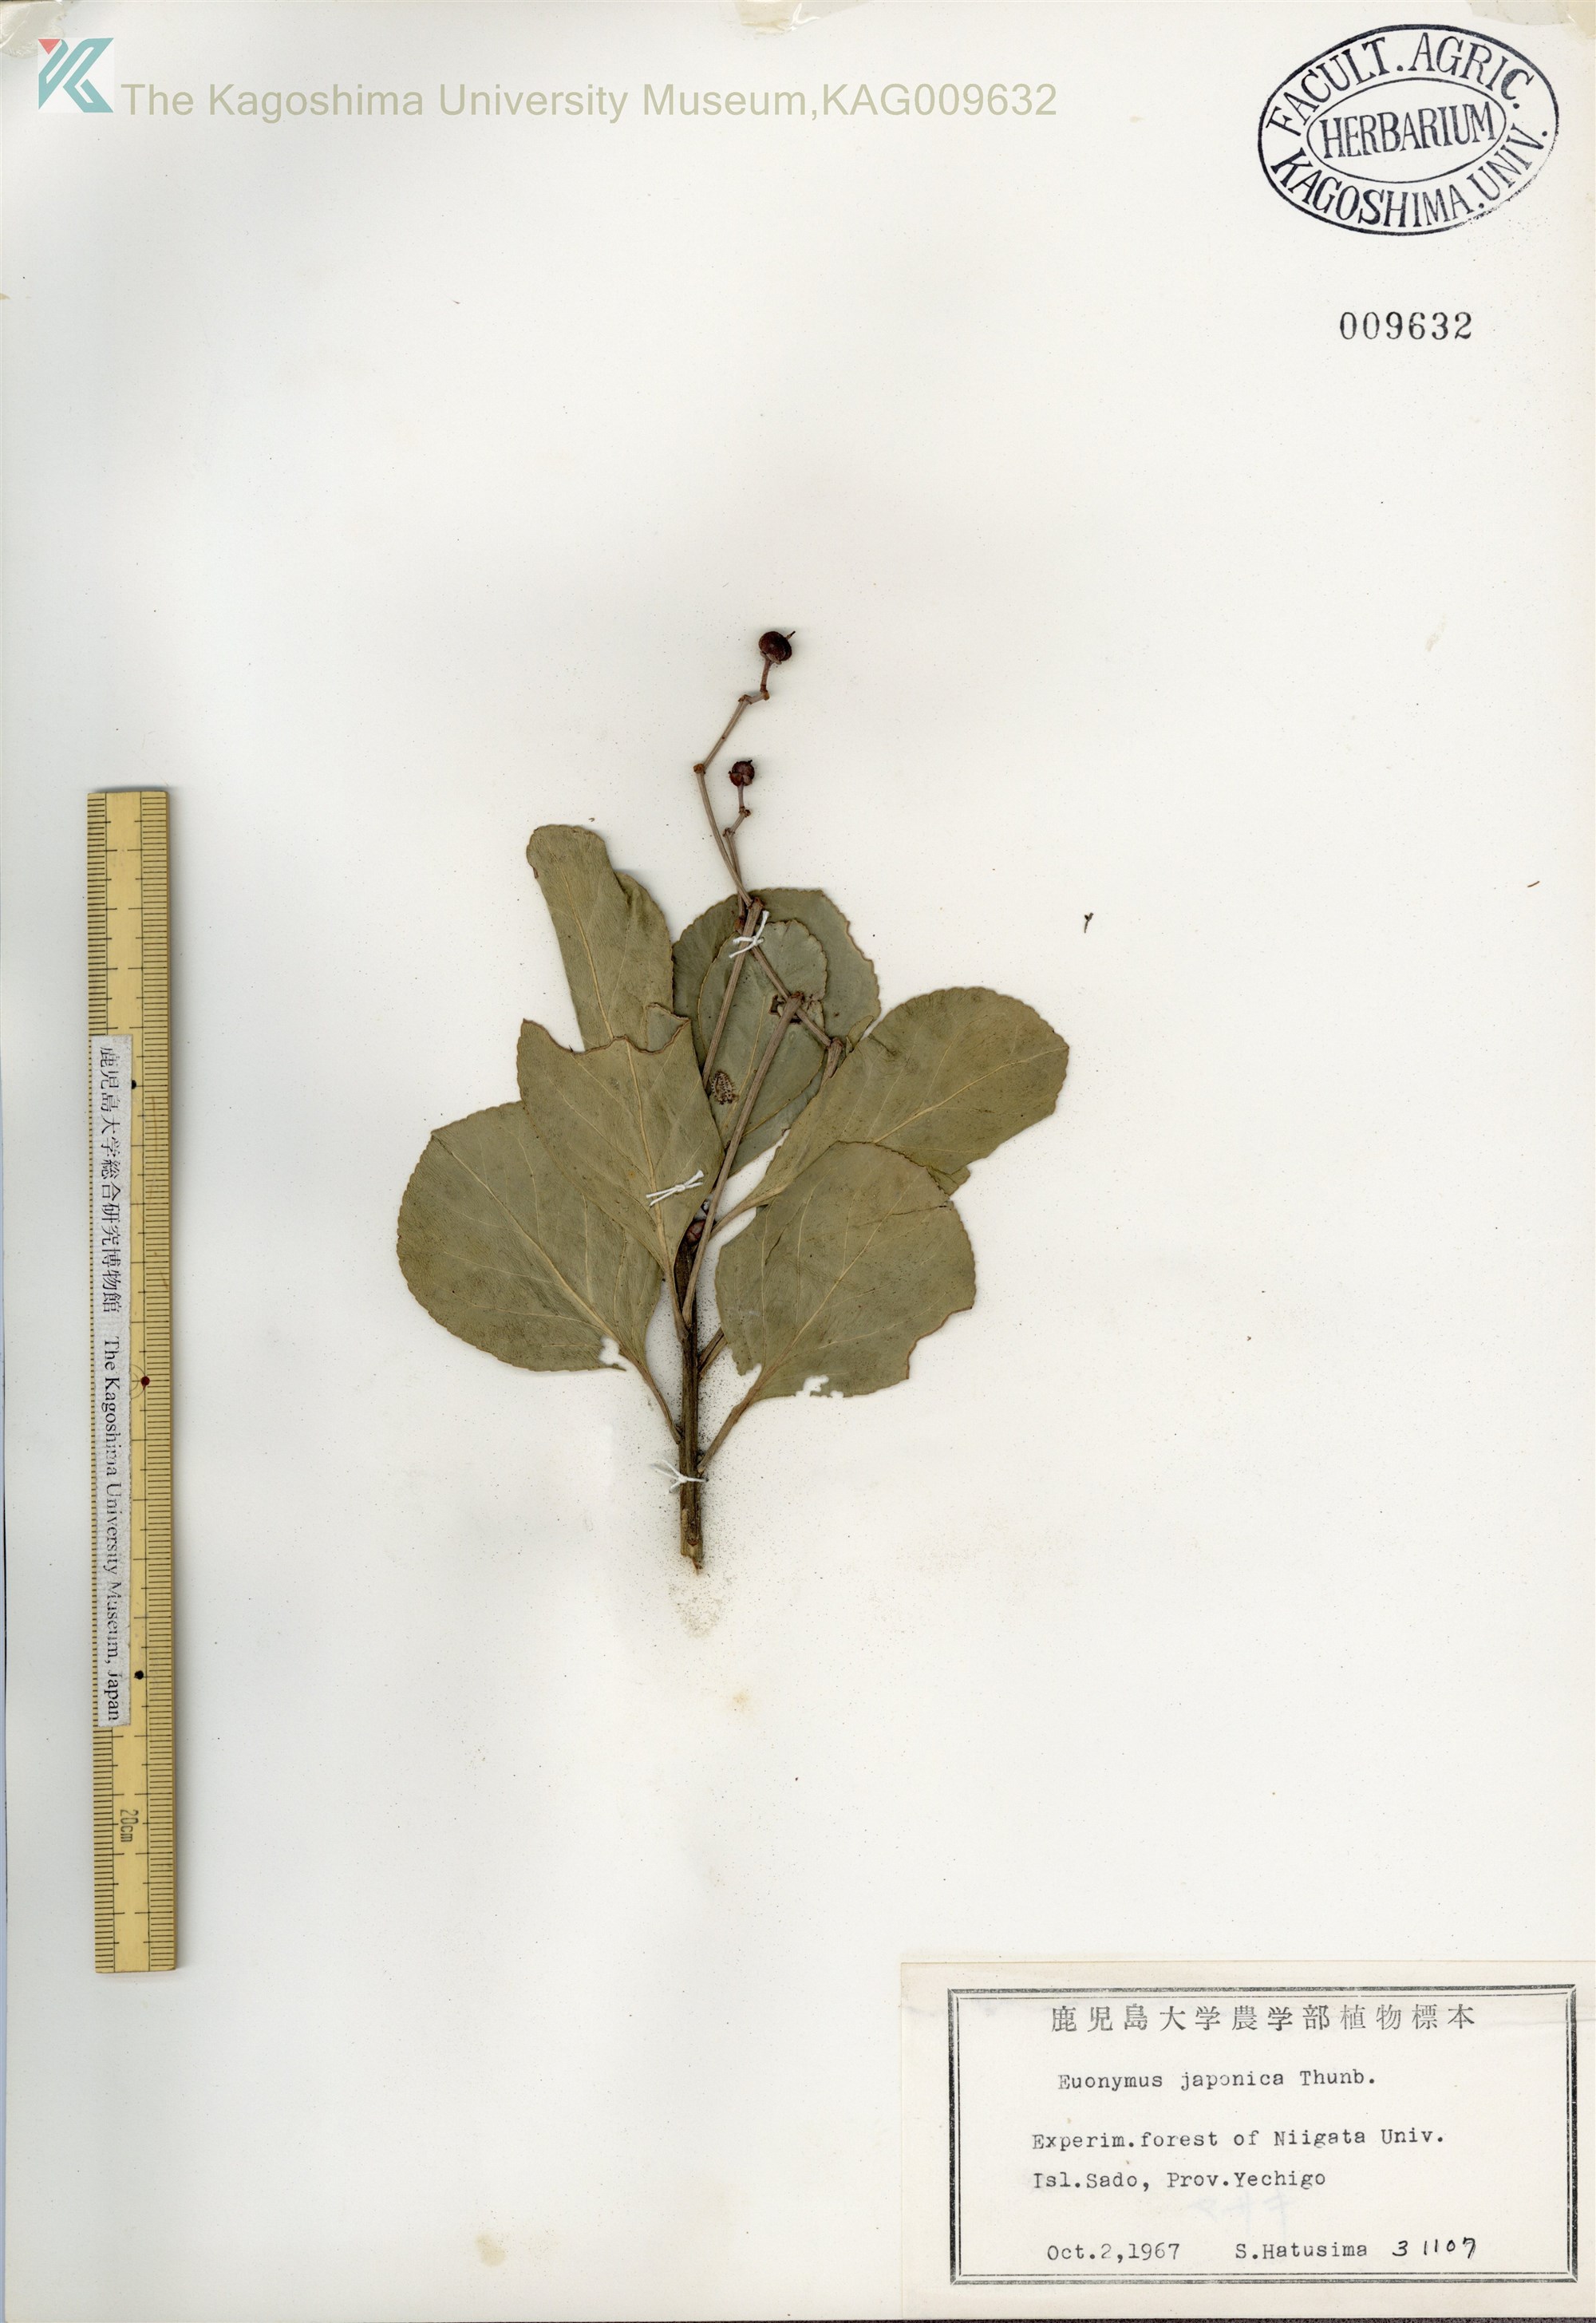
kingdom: Plantae
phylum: Tracheophyta
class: Magnoliopsida
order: Celastrales
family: Celastraceae
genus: Euonymus
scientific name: Euonymus japonicus
